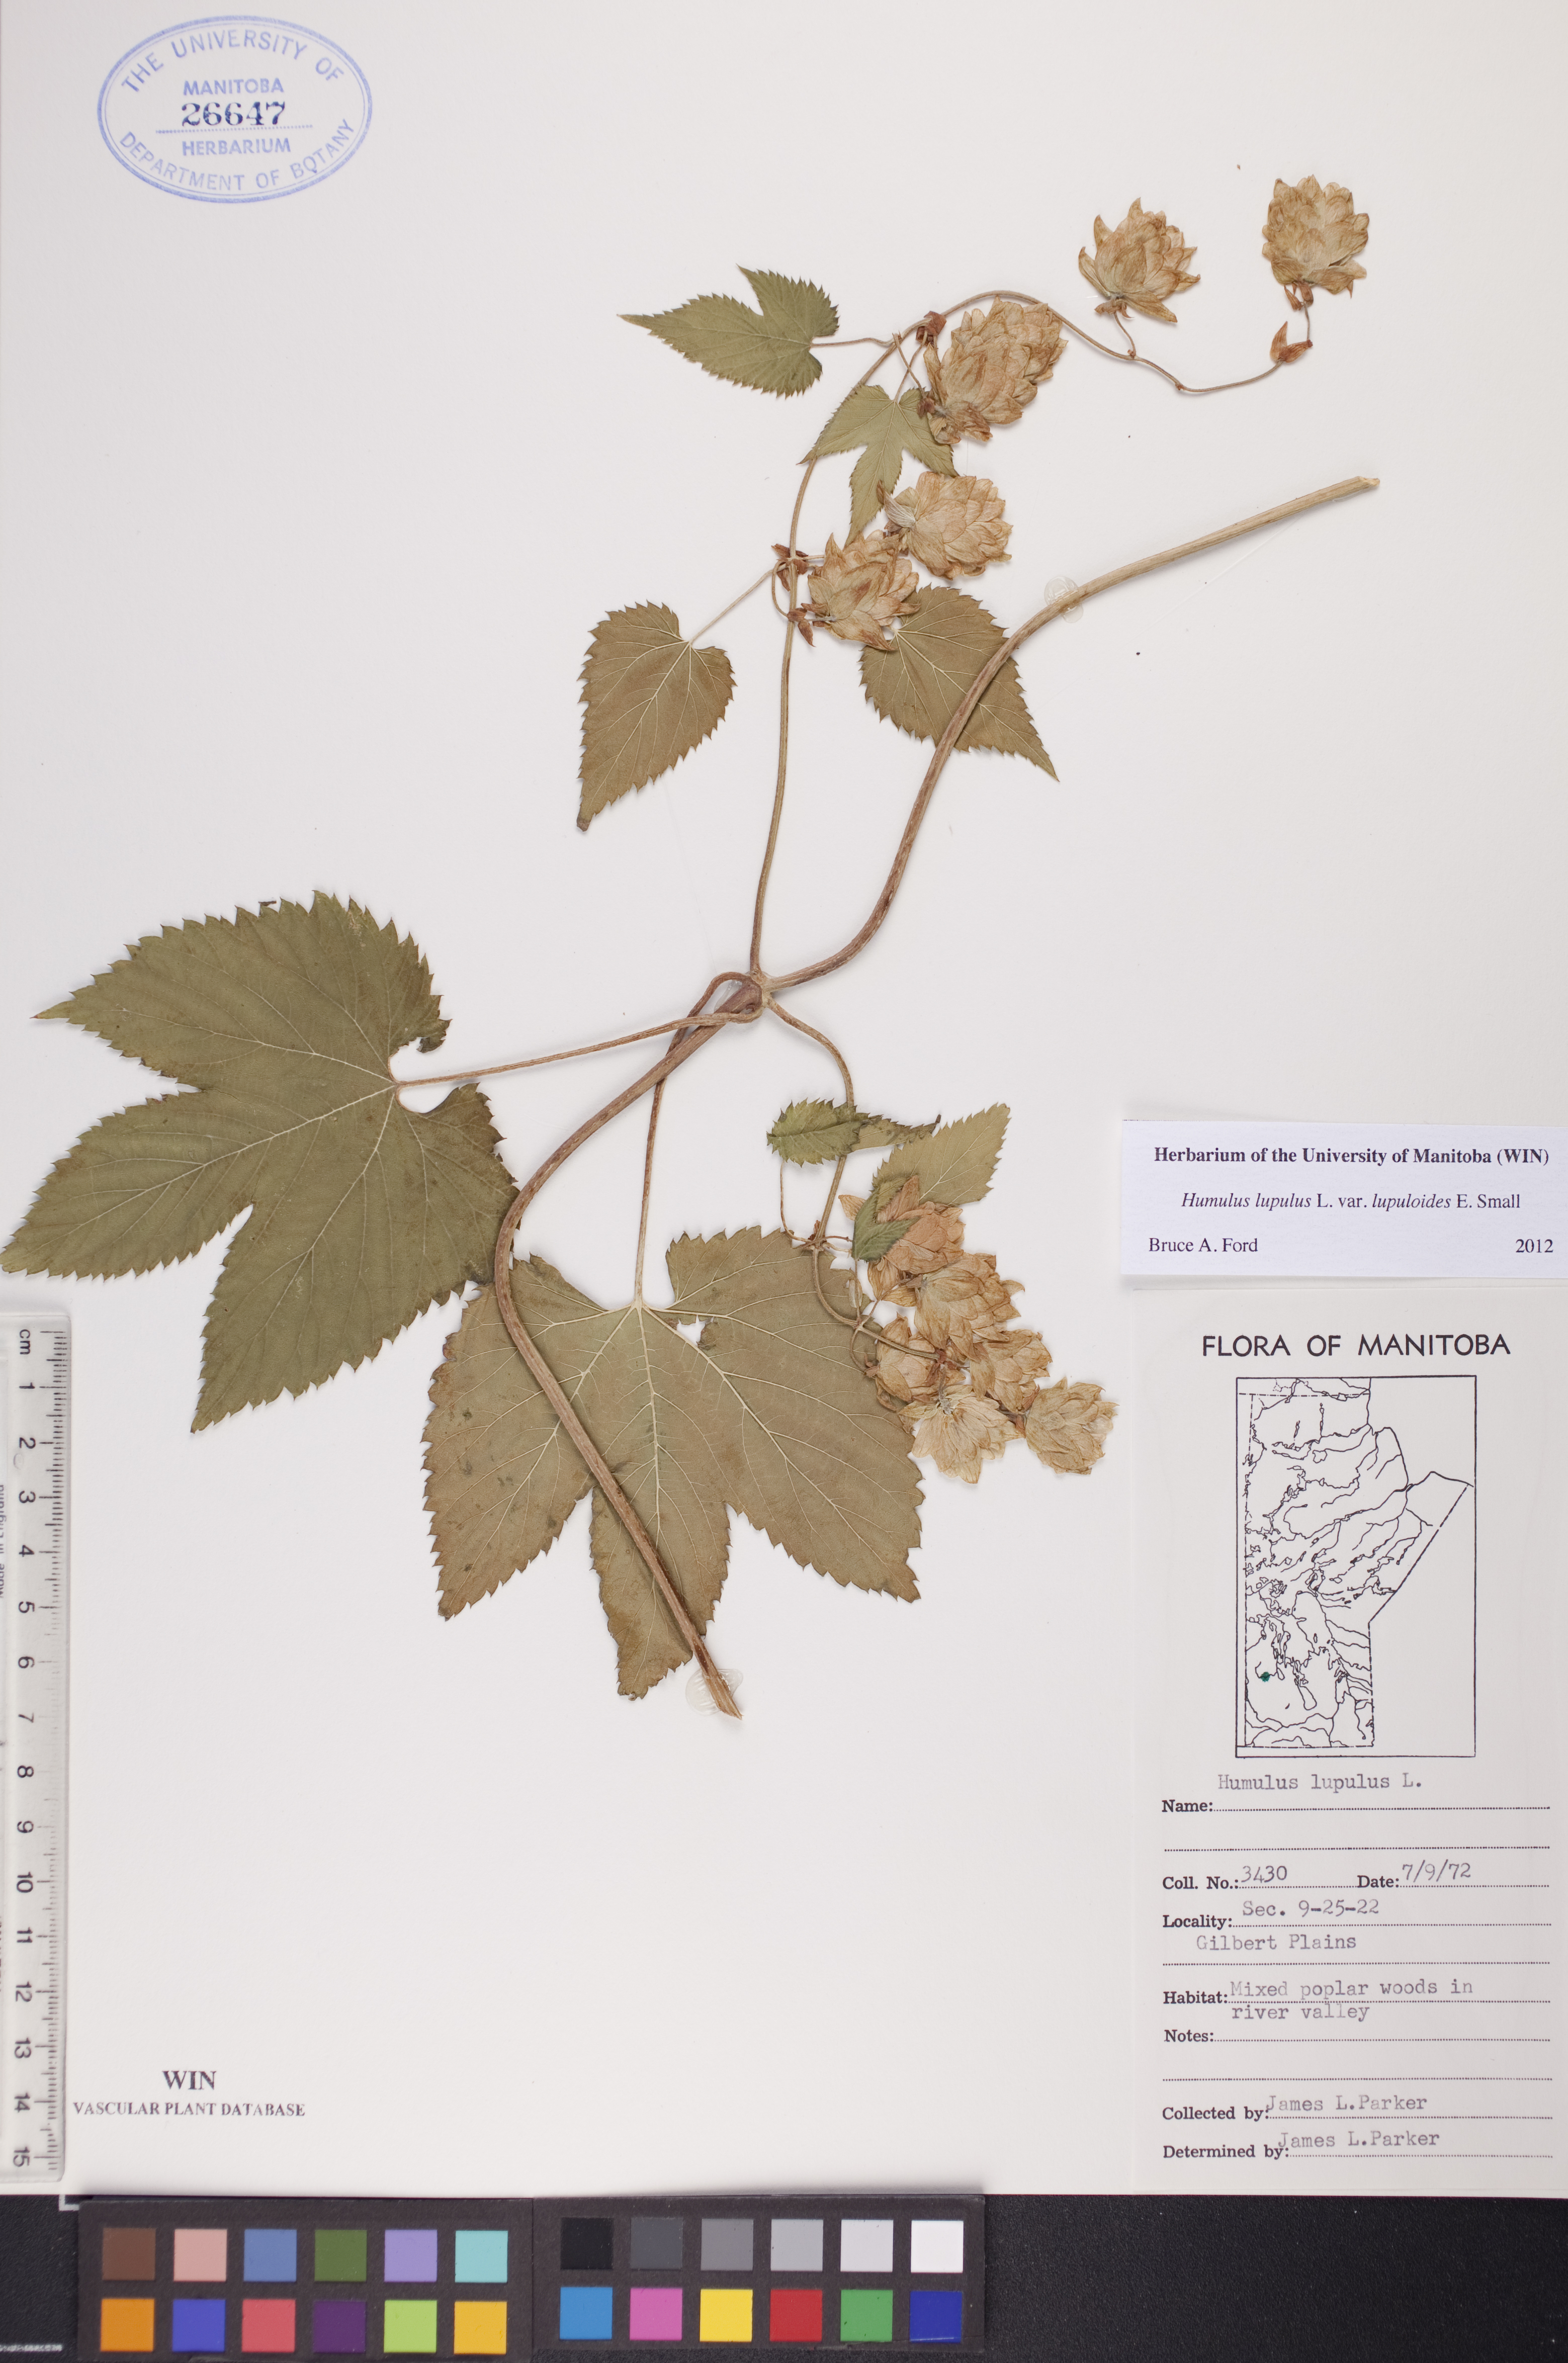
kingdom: Plantae
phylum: Tracheophyta
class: Magnoliopsida
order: Rosales
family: Cannabaceae
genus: Humulus
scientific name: Humulus americanus
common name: American hops
